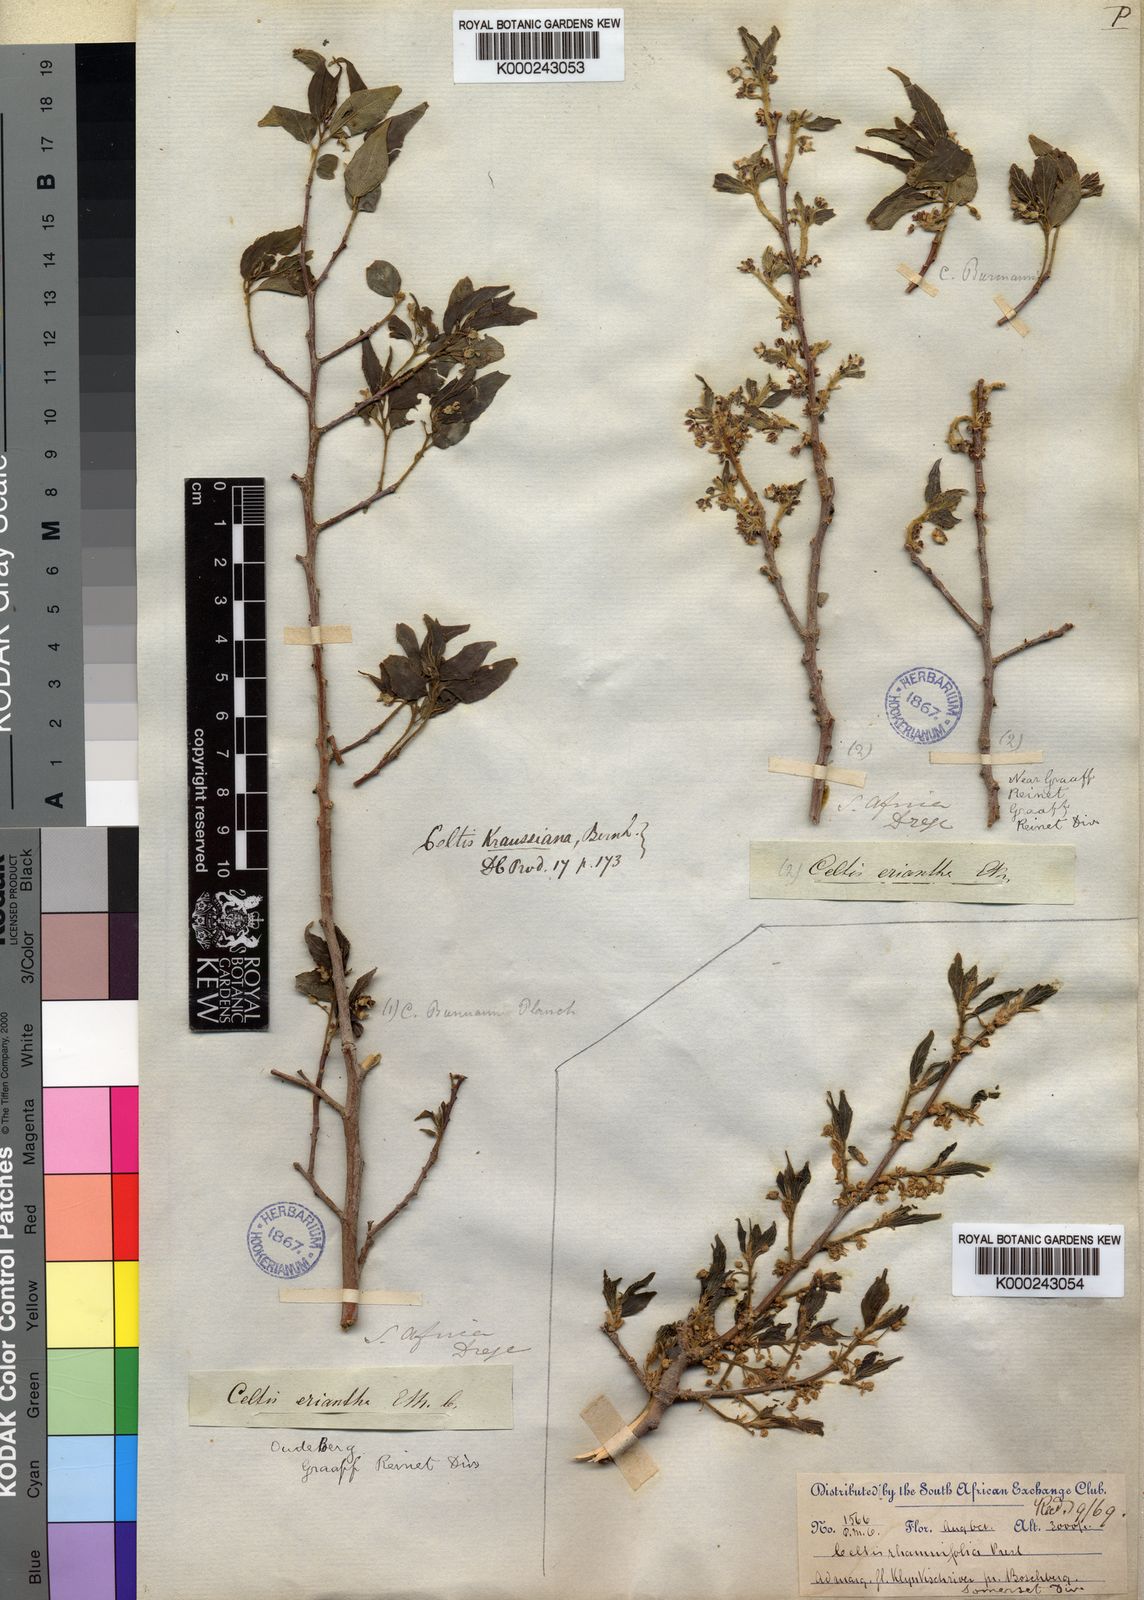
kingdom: Plantae
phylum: Tracheophyta
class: Magnoliopsida
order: Rosales
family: Cannabaceae
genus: Celtis
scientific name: Celtis
